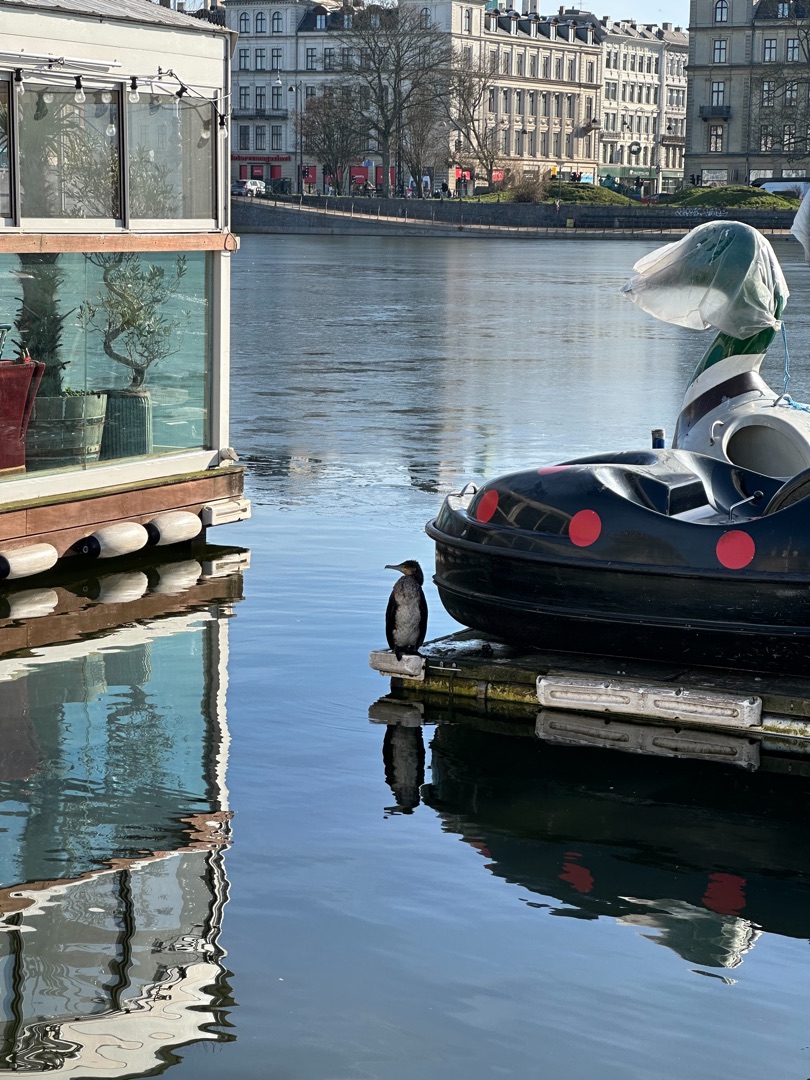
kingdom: Animalia
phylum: Chordata
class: Aves
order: Suliformes
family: Phalacrocoracidae
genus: Phalacrocorax
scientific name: Phalacrocorax carbo
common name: Skarv
